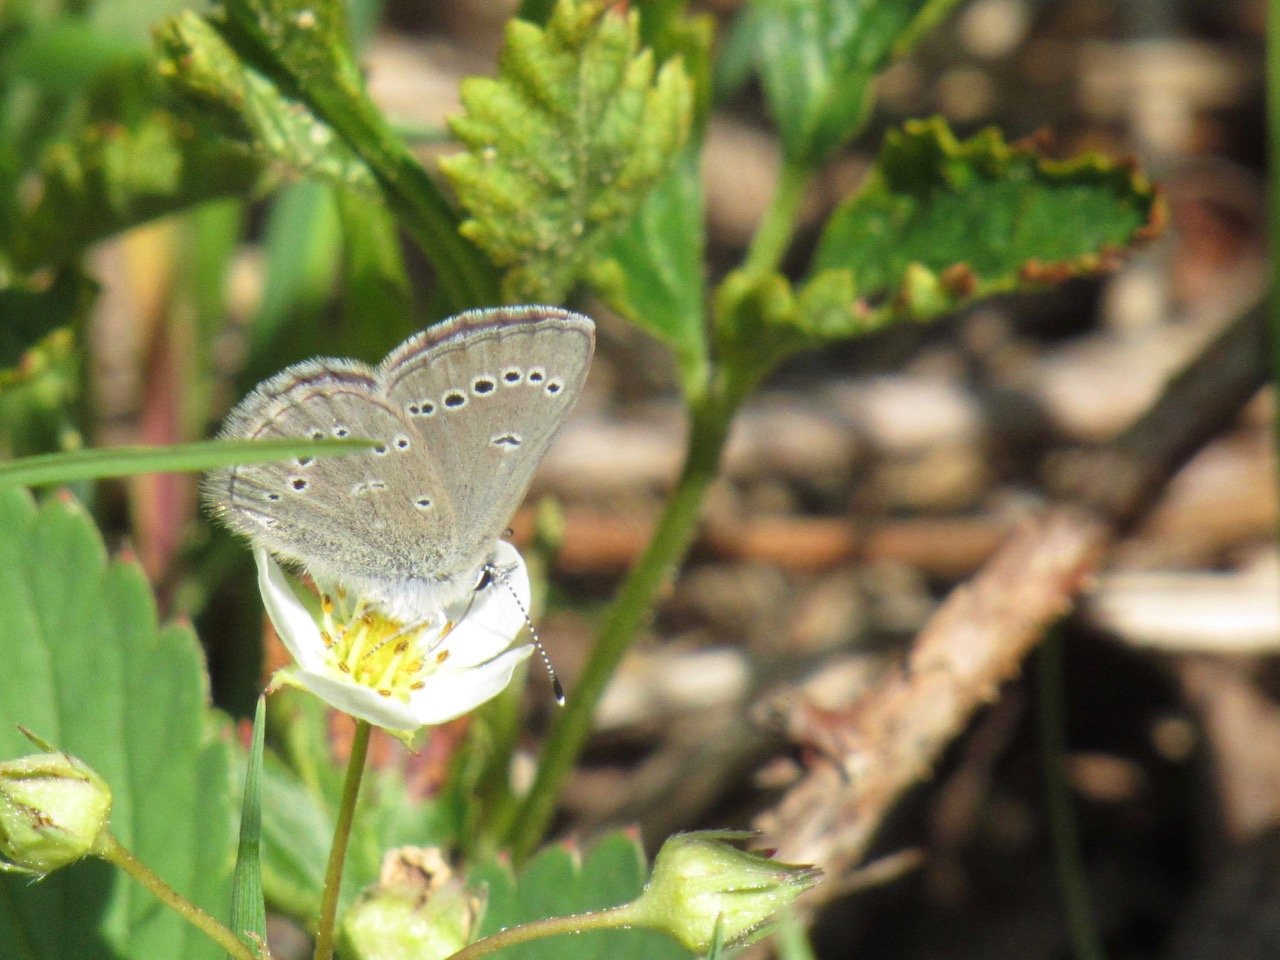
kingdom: Animalia
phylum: Arthropoda
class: Insecta
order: Lepidoptera
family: Lycaenidae
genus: Glaucopsyche
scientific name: Glaucopsyche lygdamus
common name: Silvery Blue
